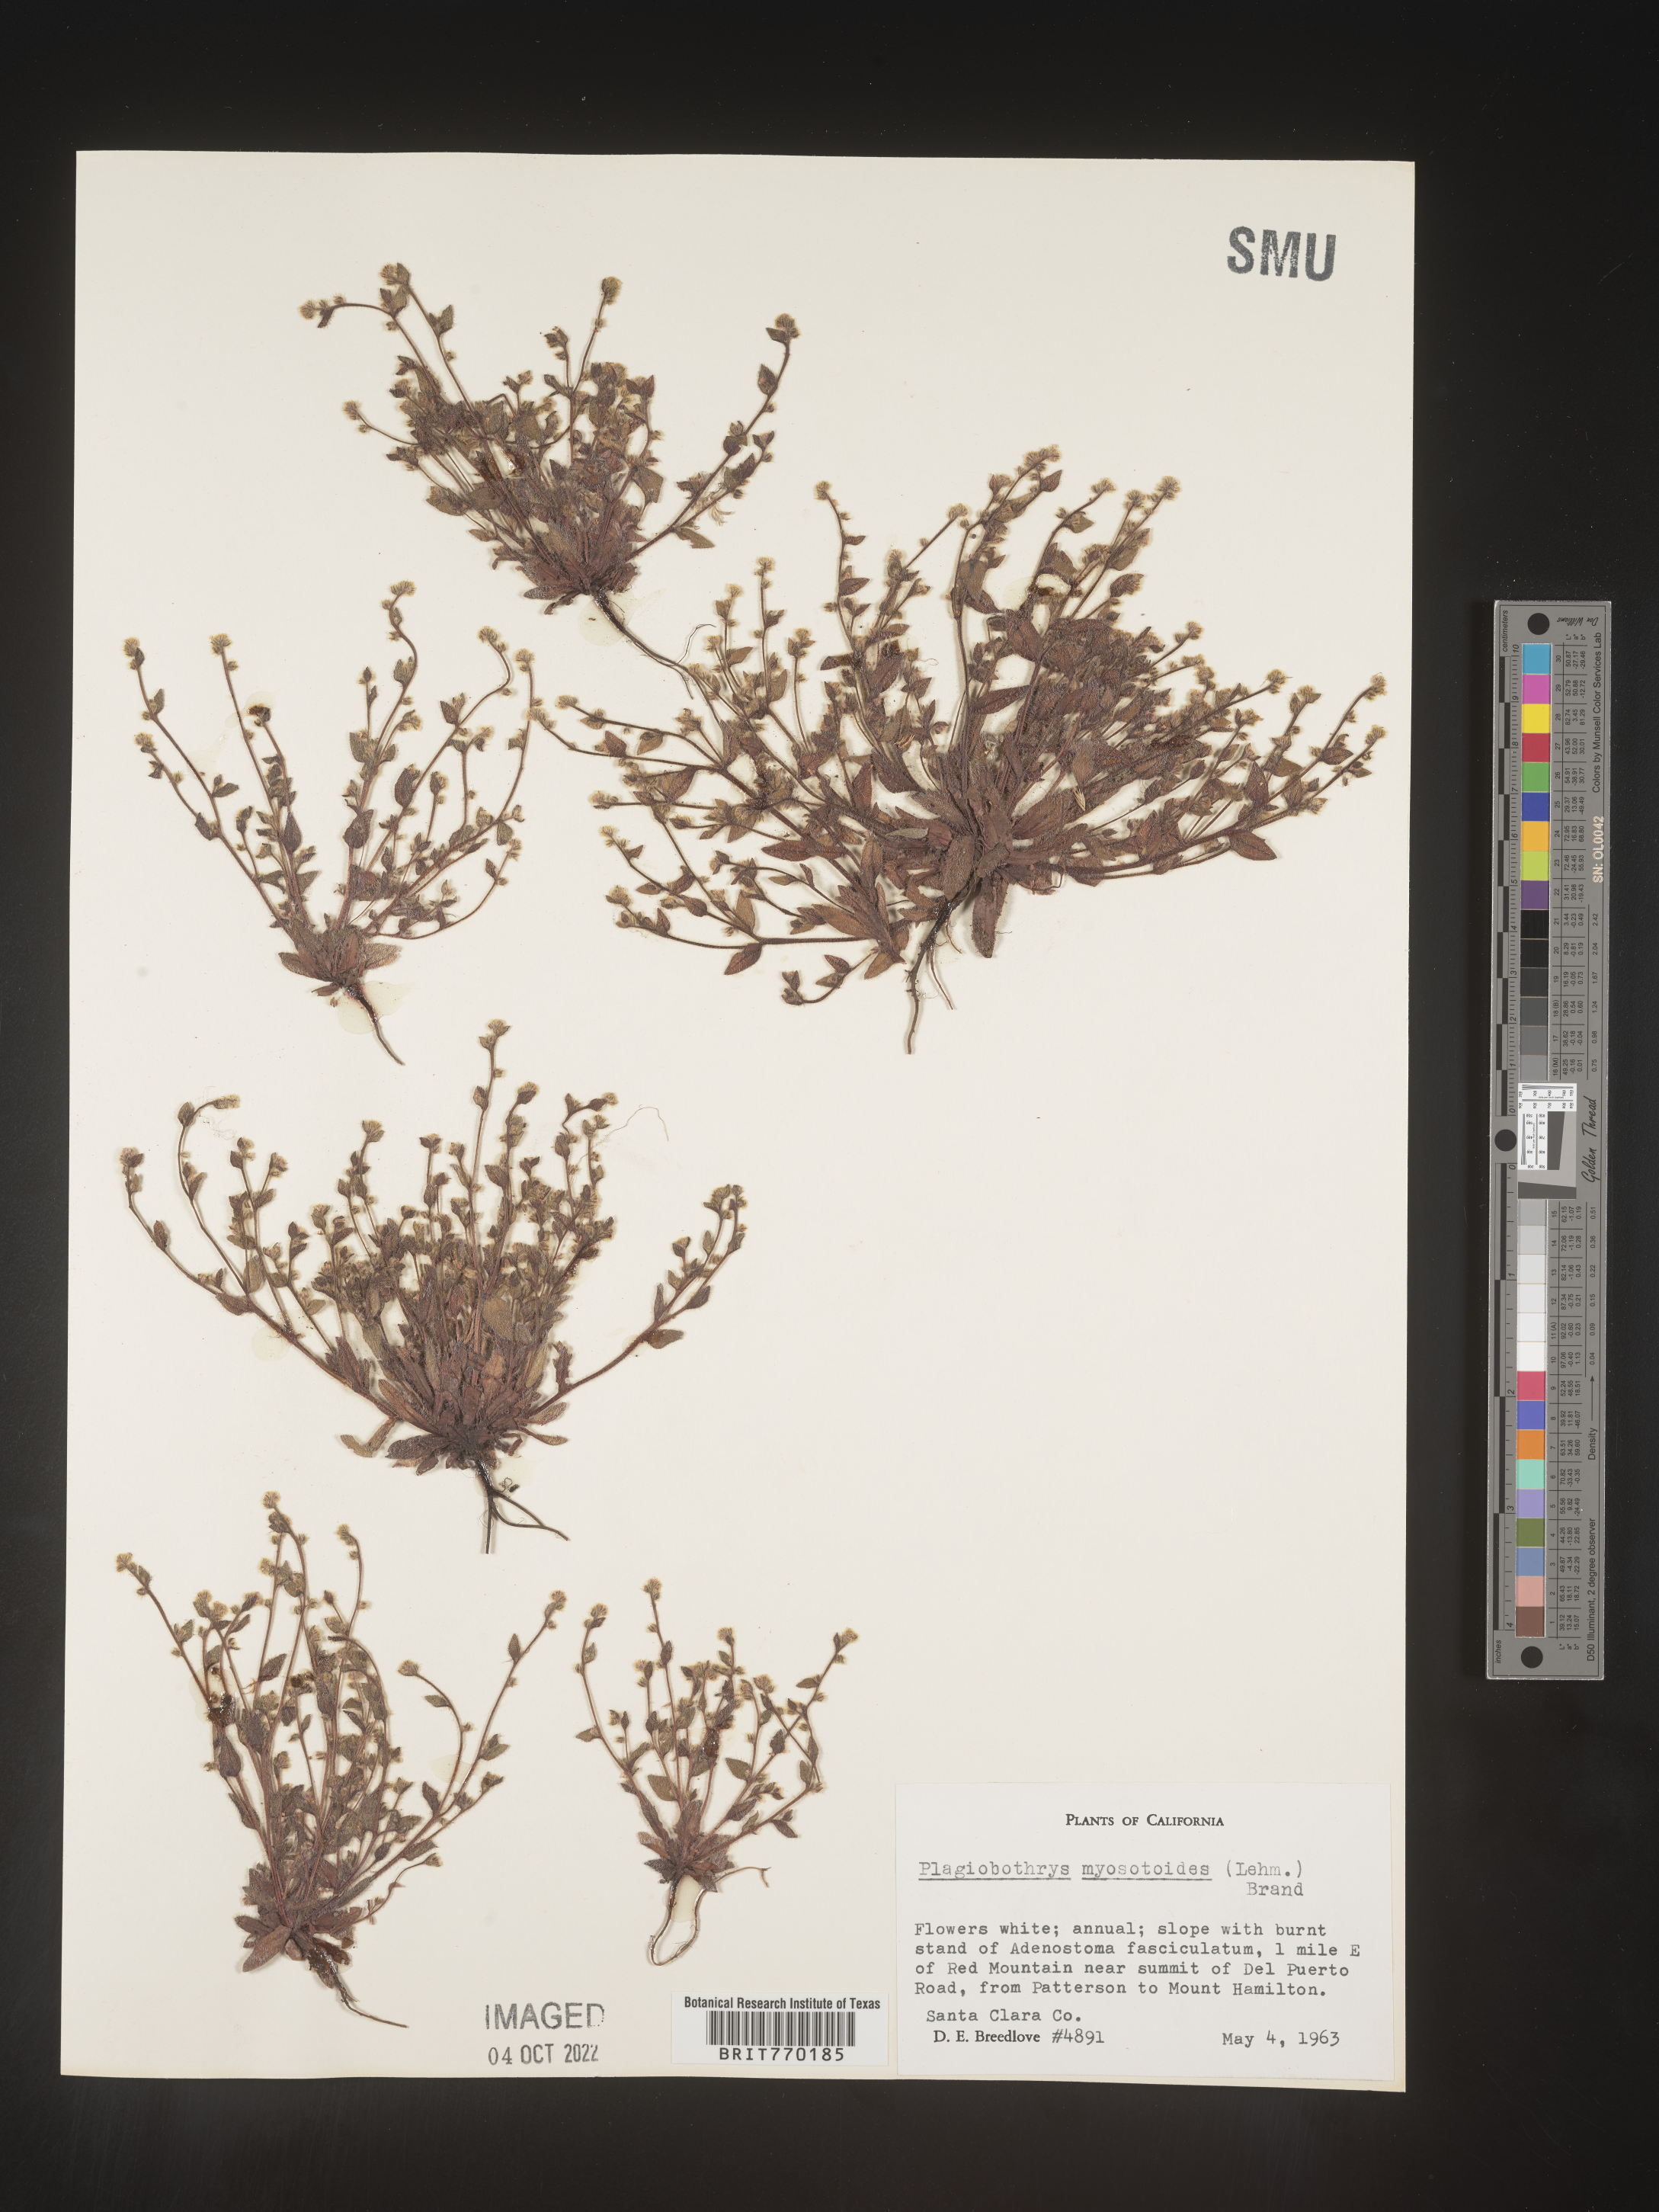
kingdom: Plantae
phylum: Tracheophyta
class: Magnoliopsida
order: Boraginales
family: Boraginaceae
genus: Plagiobothrys
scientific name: Plagiobothrys
